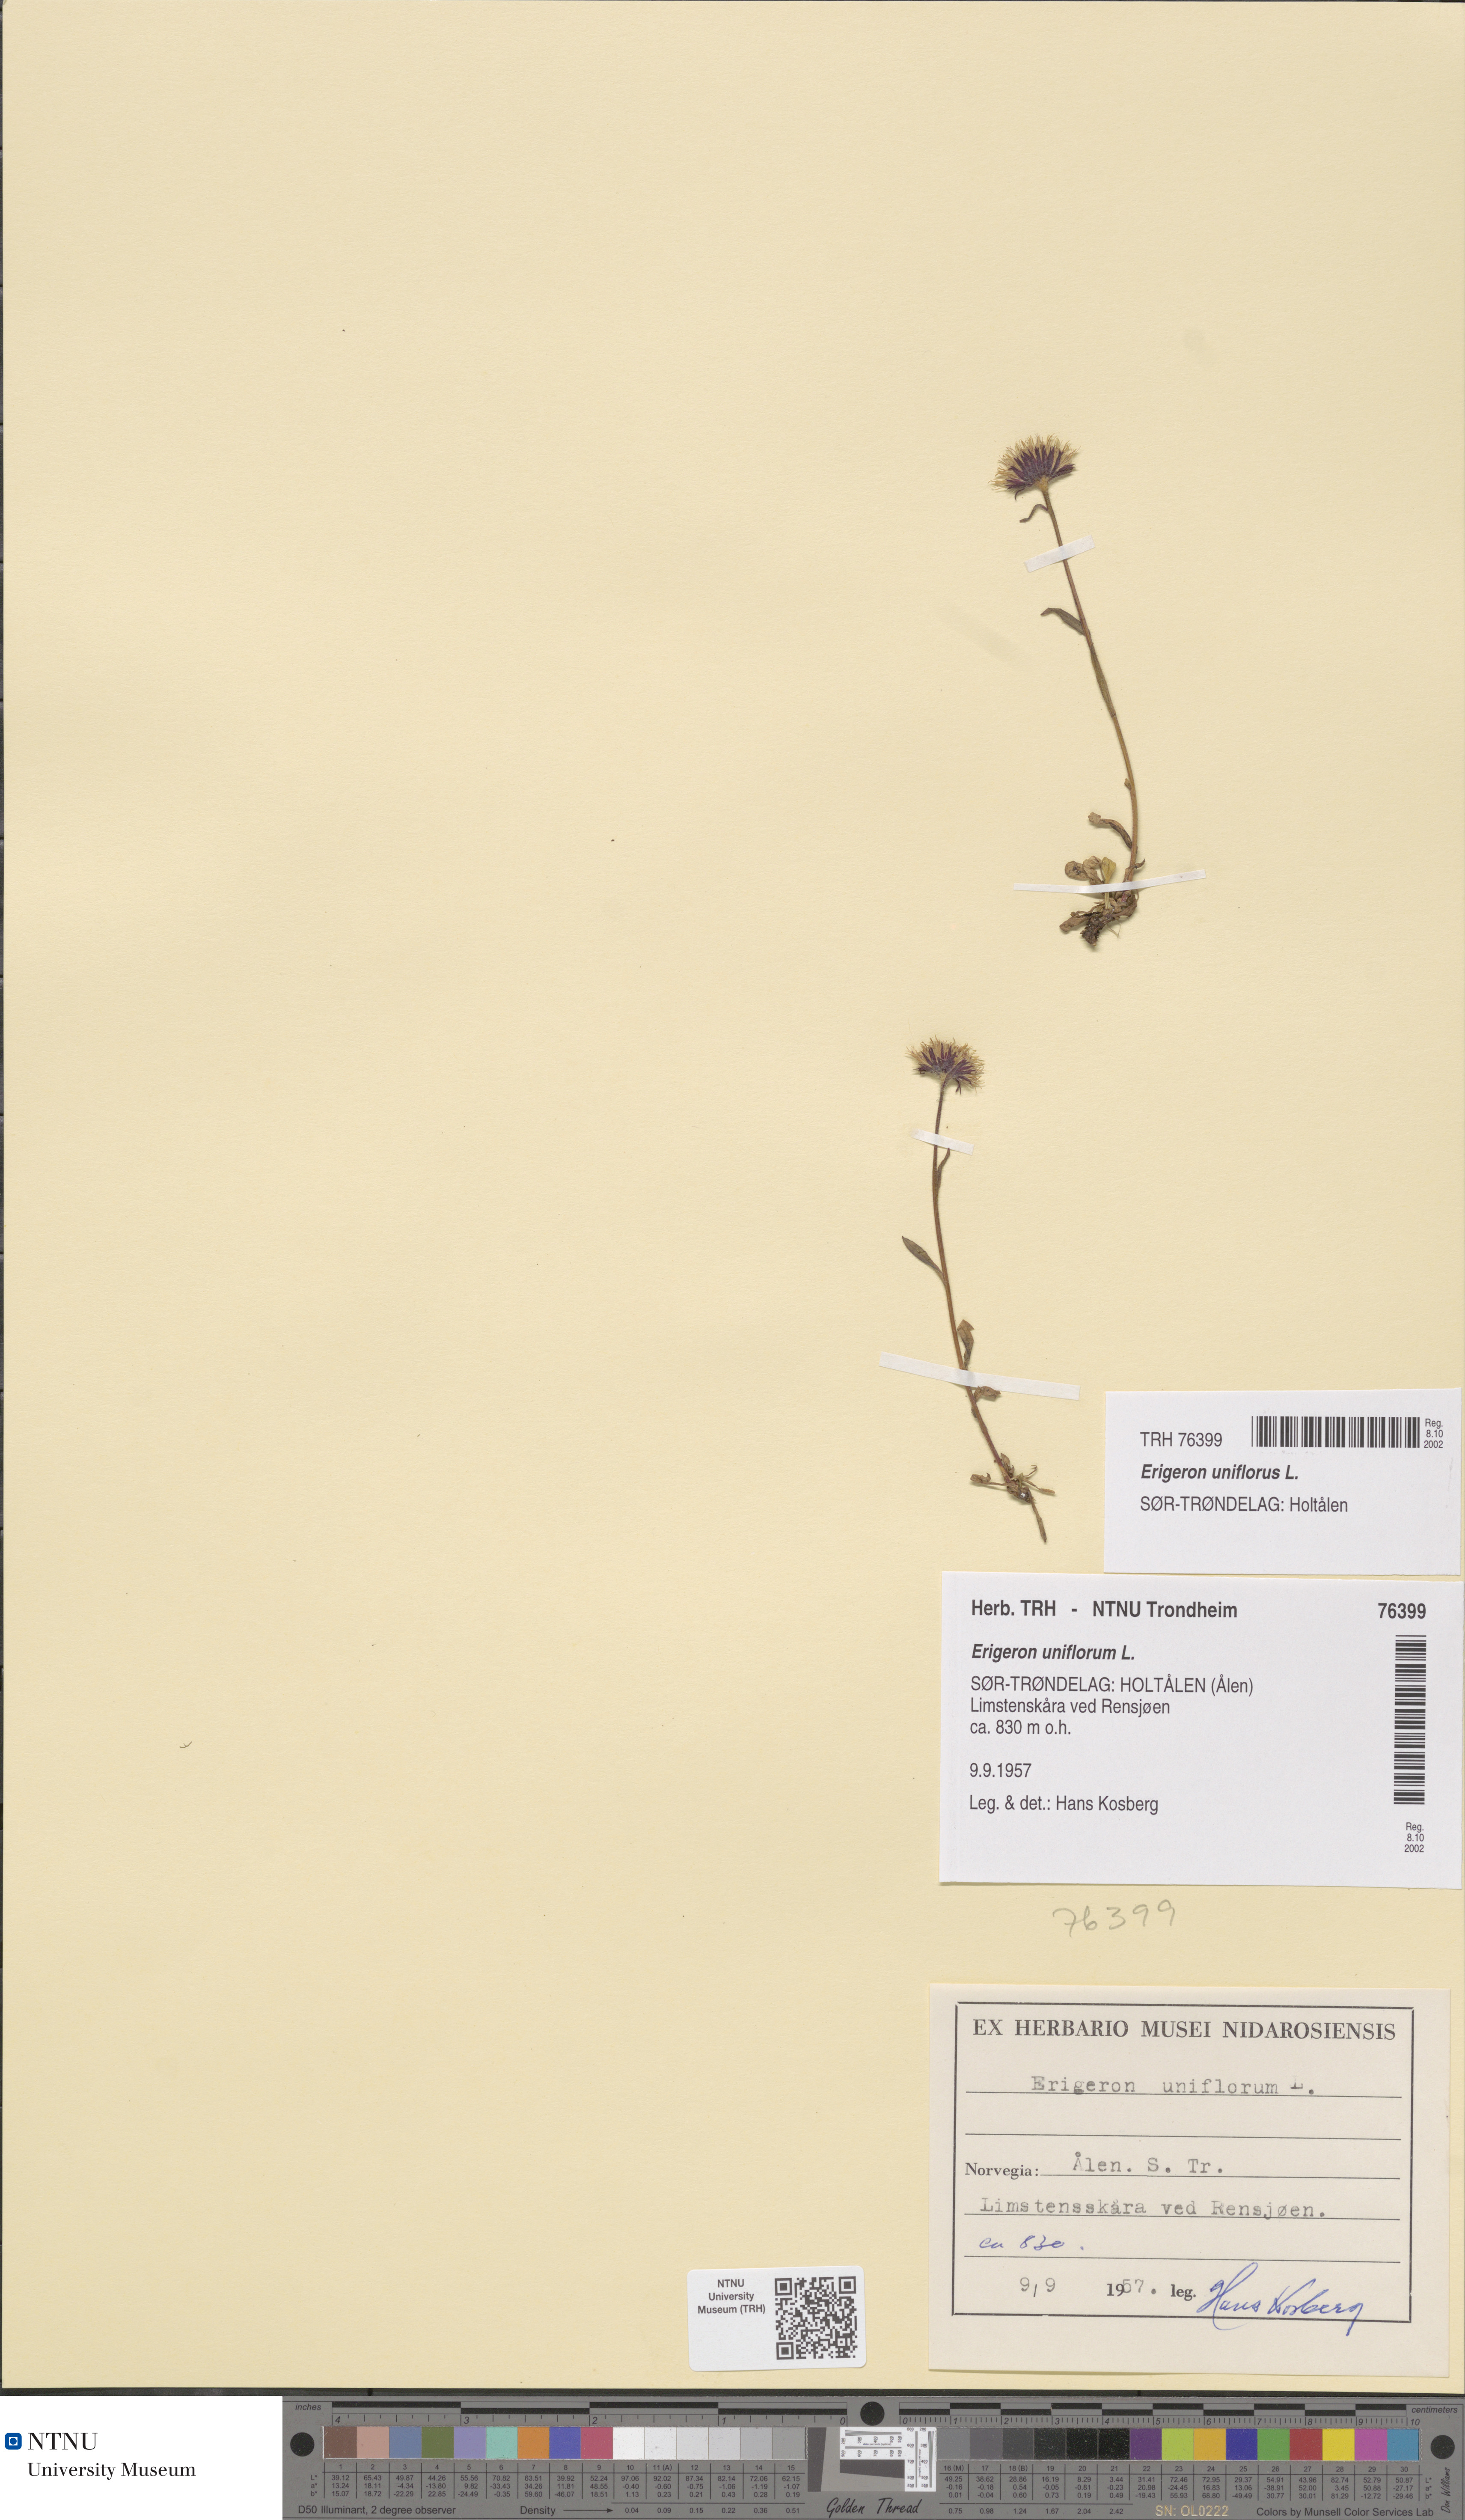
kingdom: Plantae
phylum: Tracheophyta
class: Magnoliopsida
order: Asterales
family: Asteraceae
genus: Erigeron
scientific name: Erigeron uniflorus
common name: Northern daisy
